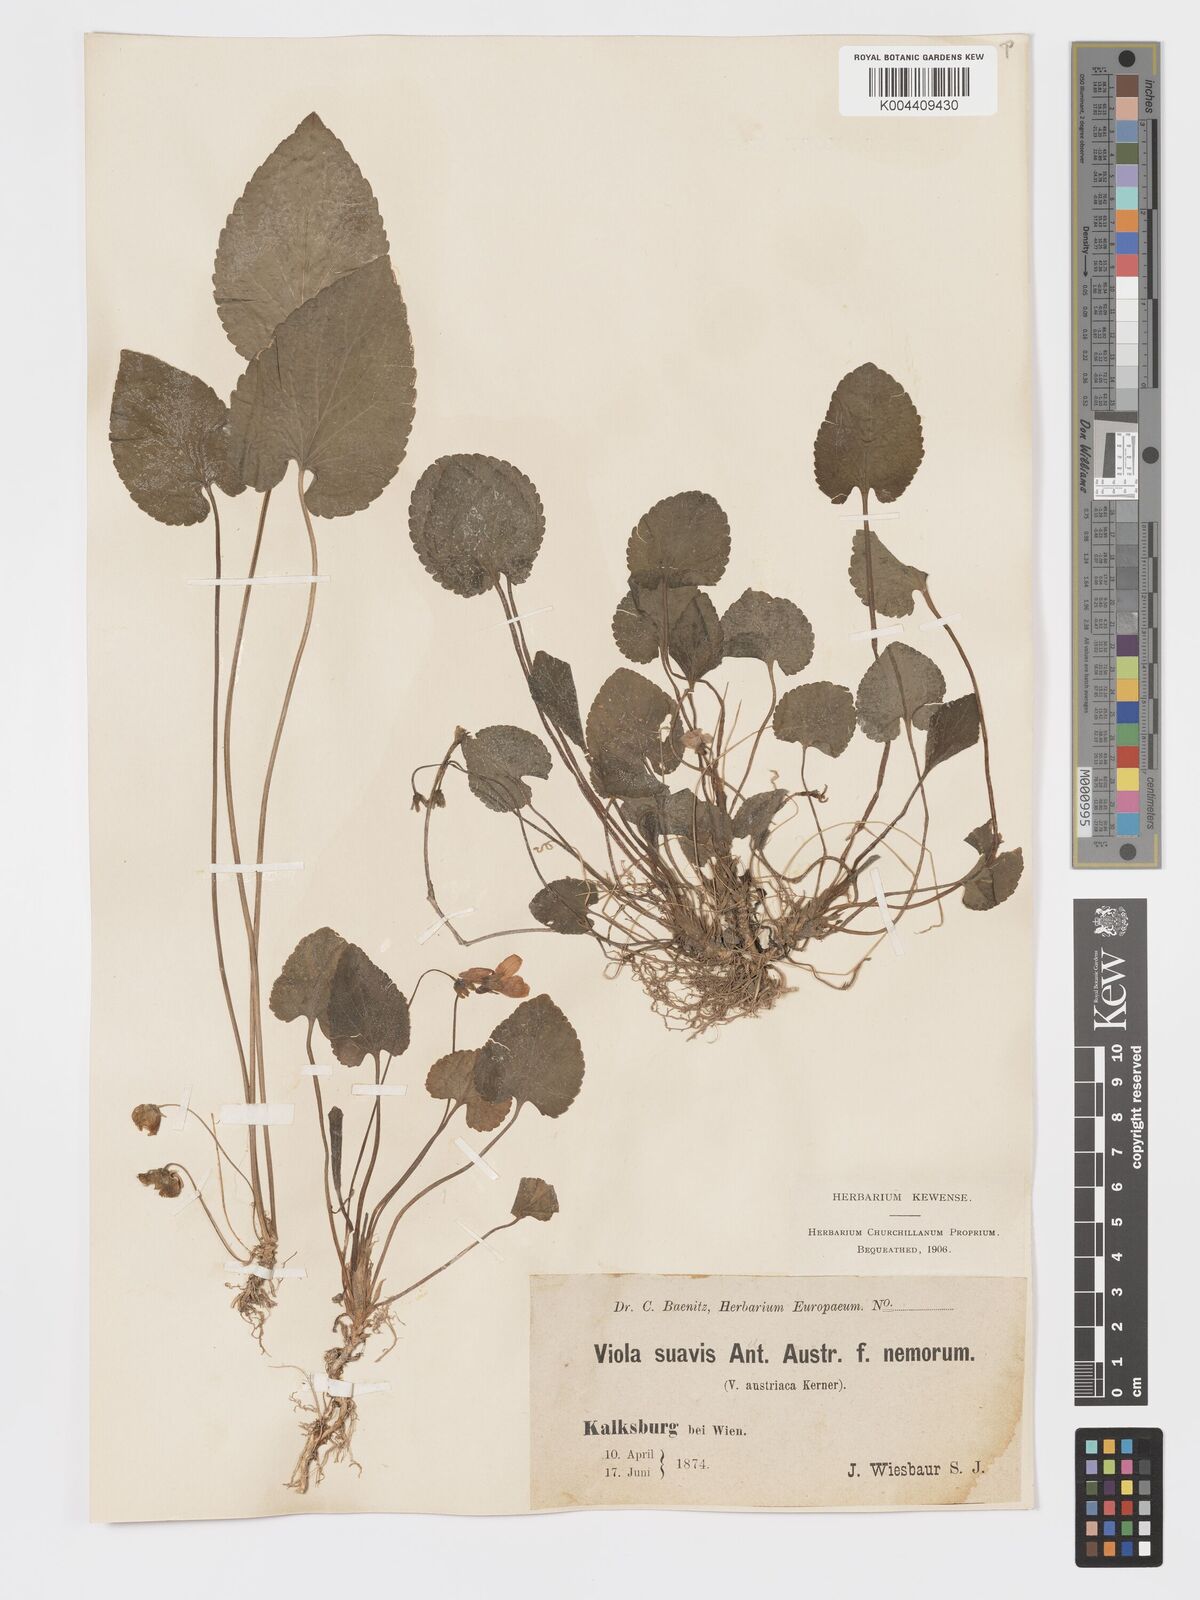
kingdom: Plantae
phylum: Tracheophyta
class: Magnoliopsida
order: Malpighiales
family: Violaceae
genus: Viola
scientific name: Viola kalksburgensis
